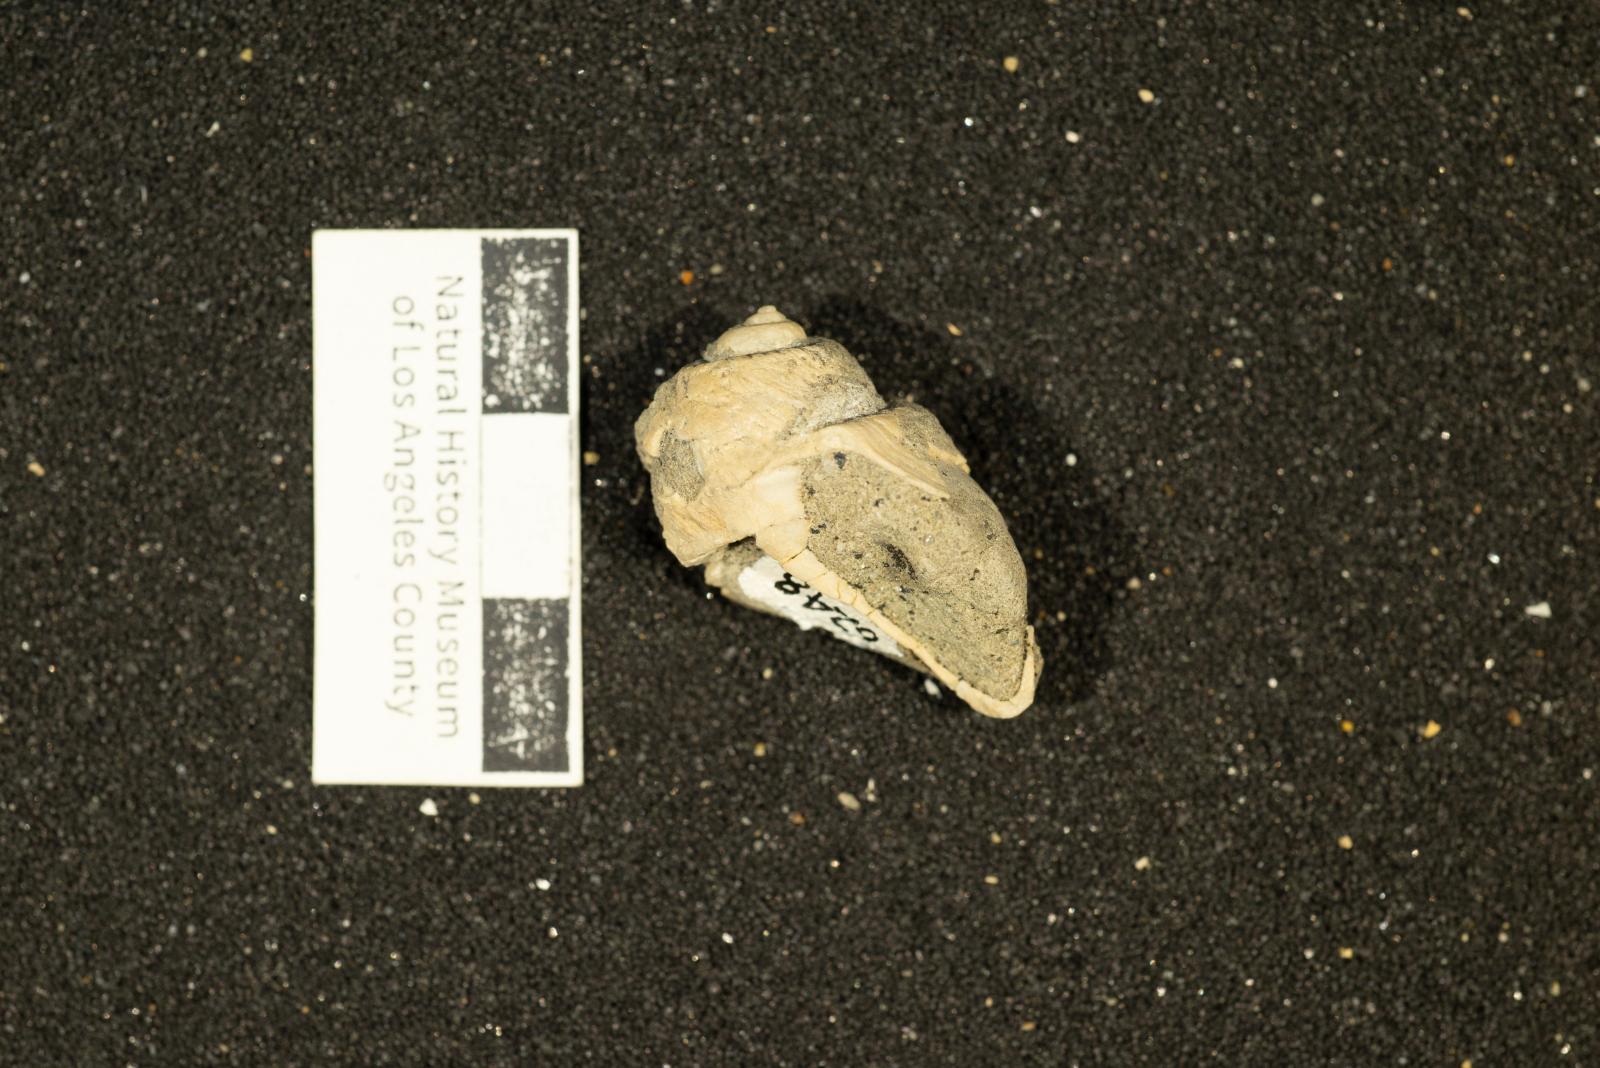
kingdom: Animalia
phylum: Mollusca
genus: Ampullina
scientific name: Ampullina
